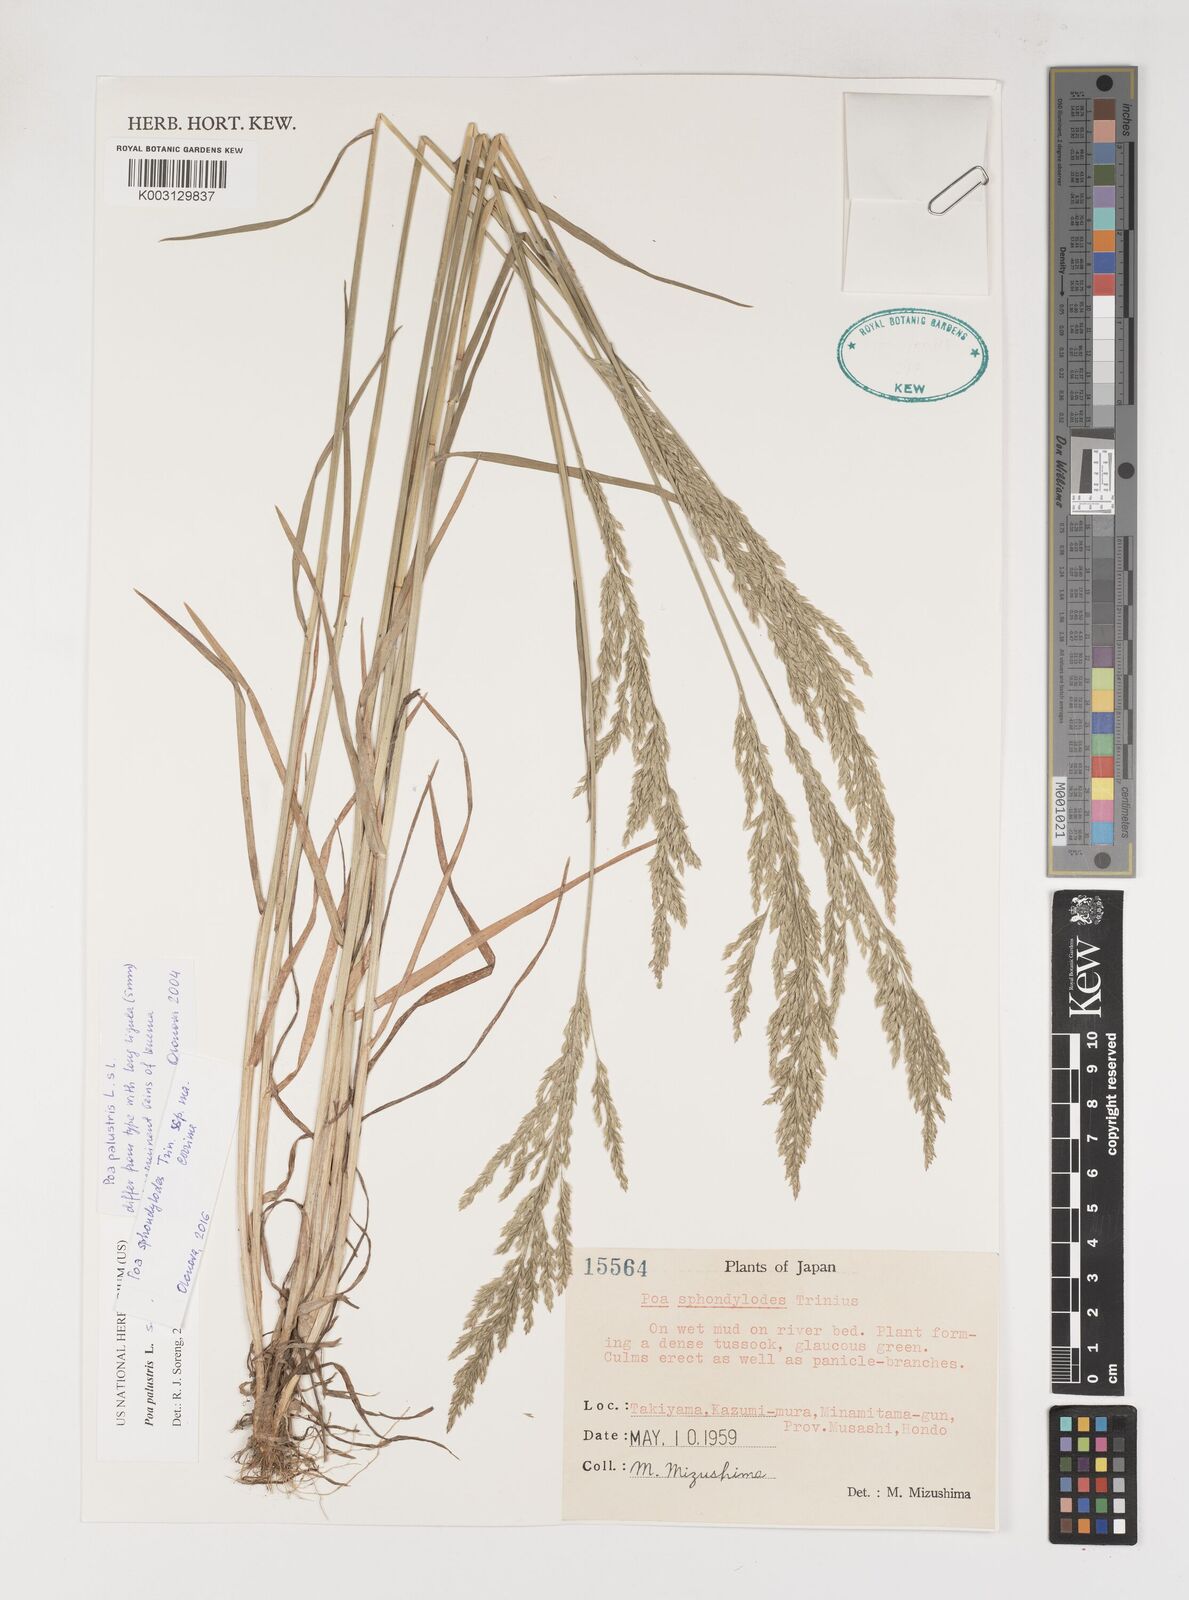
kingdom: Plantae
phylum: Tracheophyta
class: Liliopsida
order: Poales
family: Poaceae
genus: Poa
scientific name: Poa palustris
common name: Swamp meadow-grass
